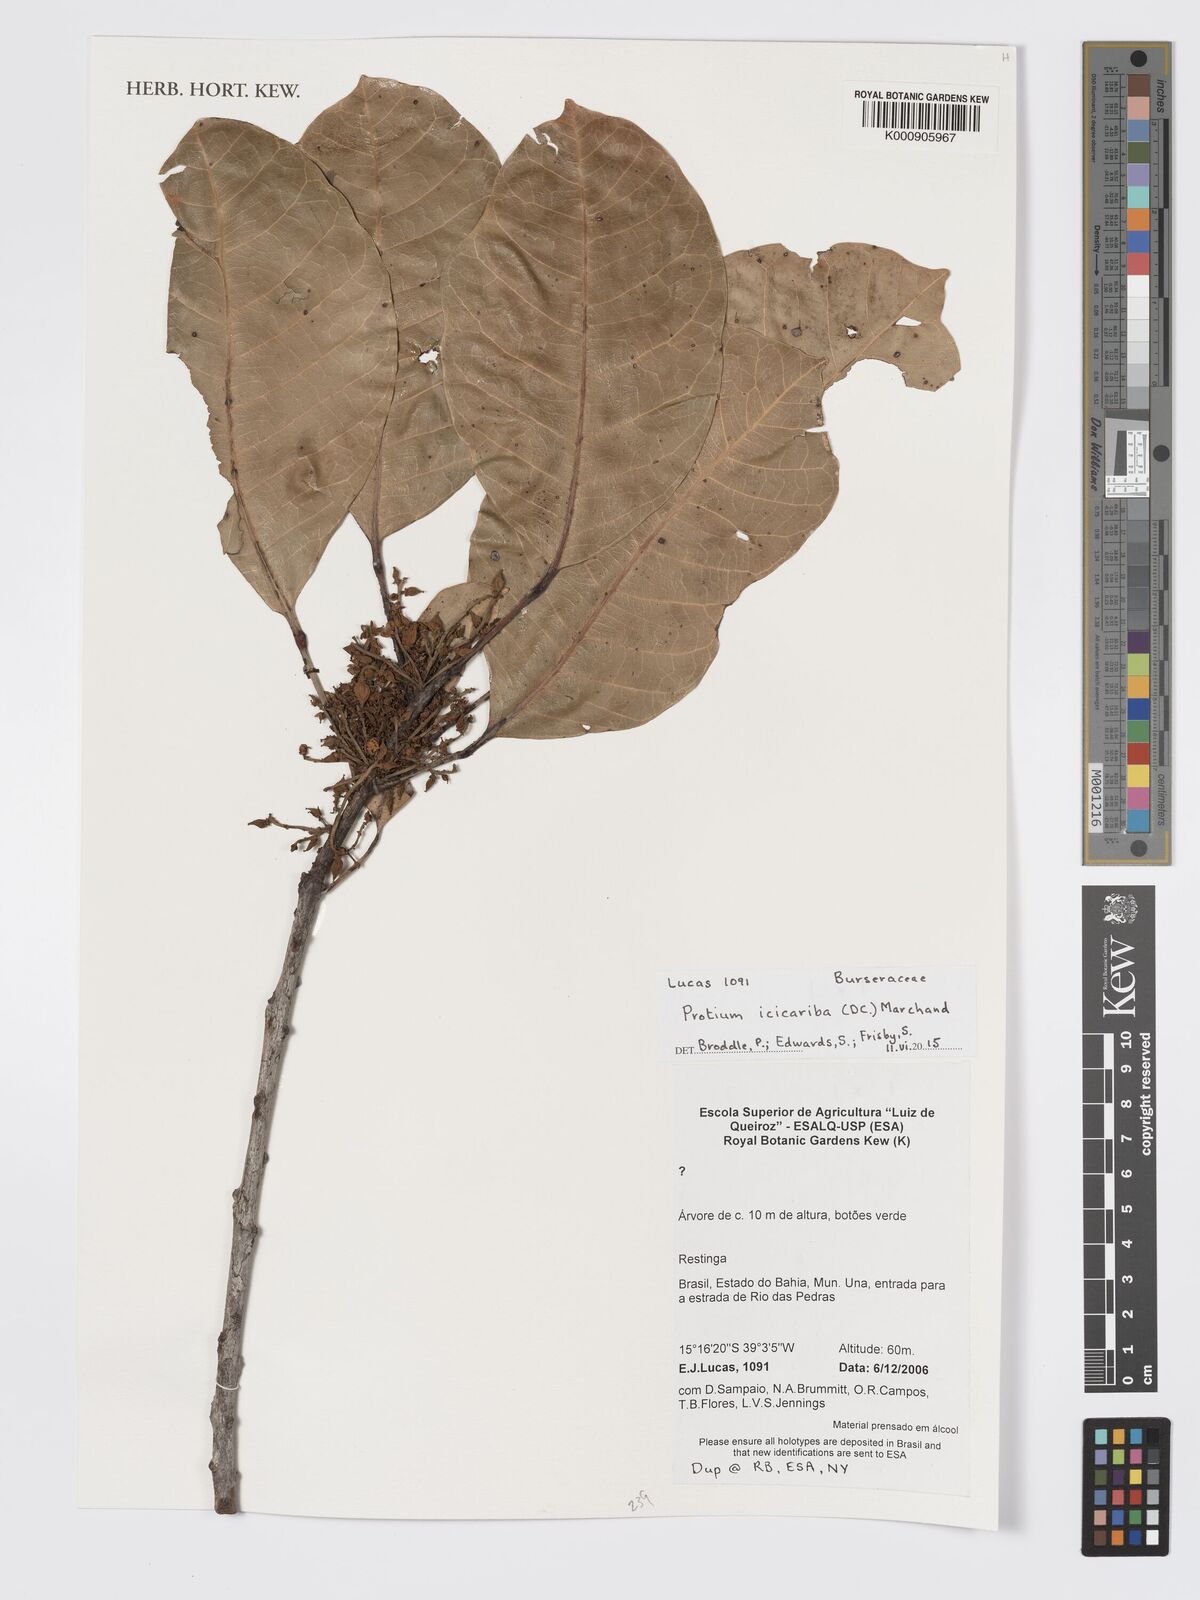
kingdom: Plantae
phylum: Tracheophyta
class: Magnoliopsida
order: Sapindales
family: Burseraceae
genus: Protium
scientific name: Protium icicariba
